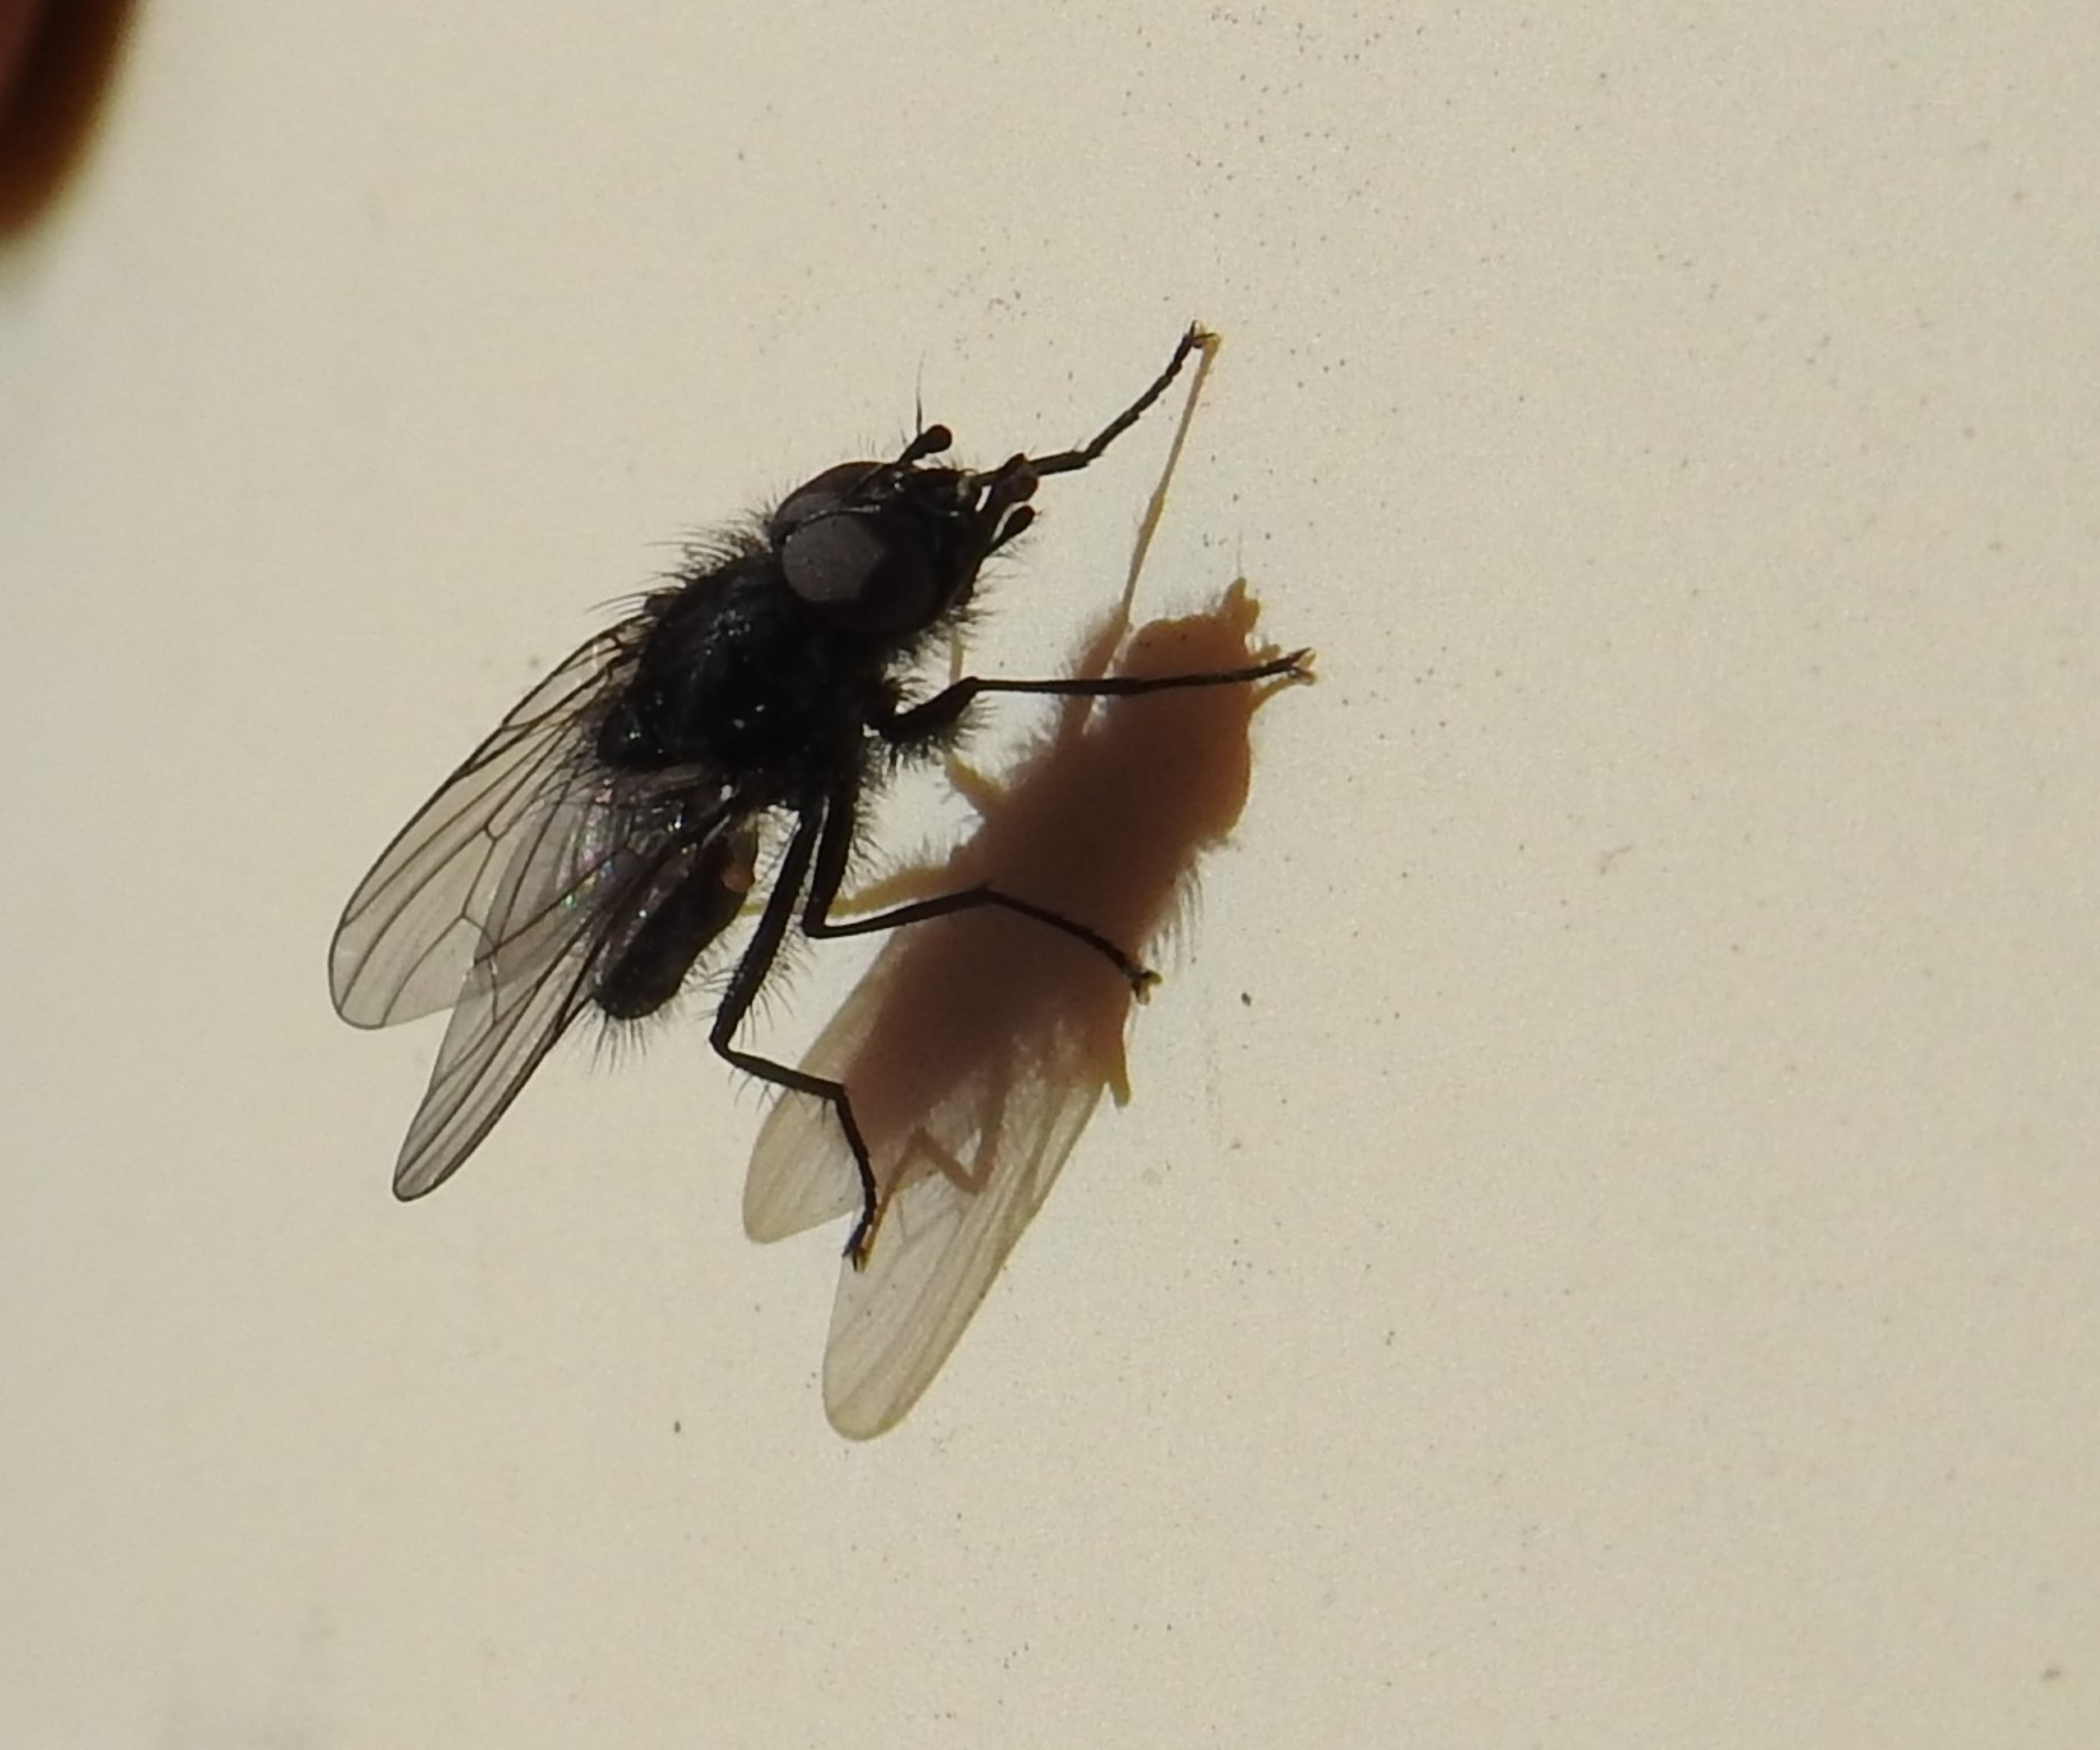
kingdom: Animalia
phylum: Arthropoda
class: Insecta
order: Diptera
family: Anthomyiidae
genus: Botanophila
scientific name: Botanophila striolata
